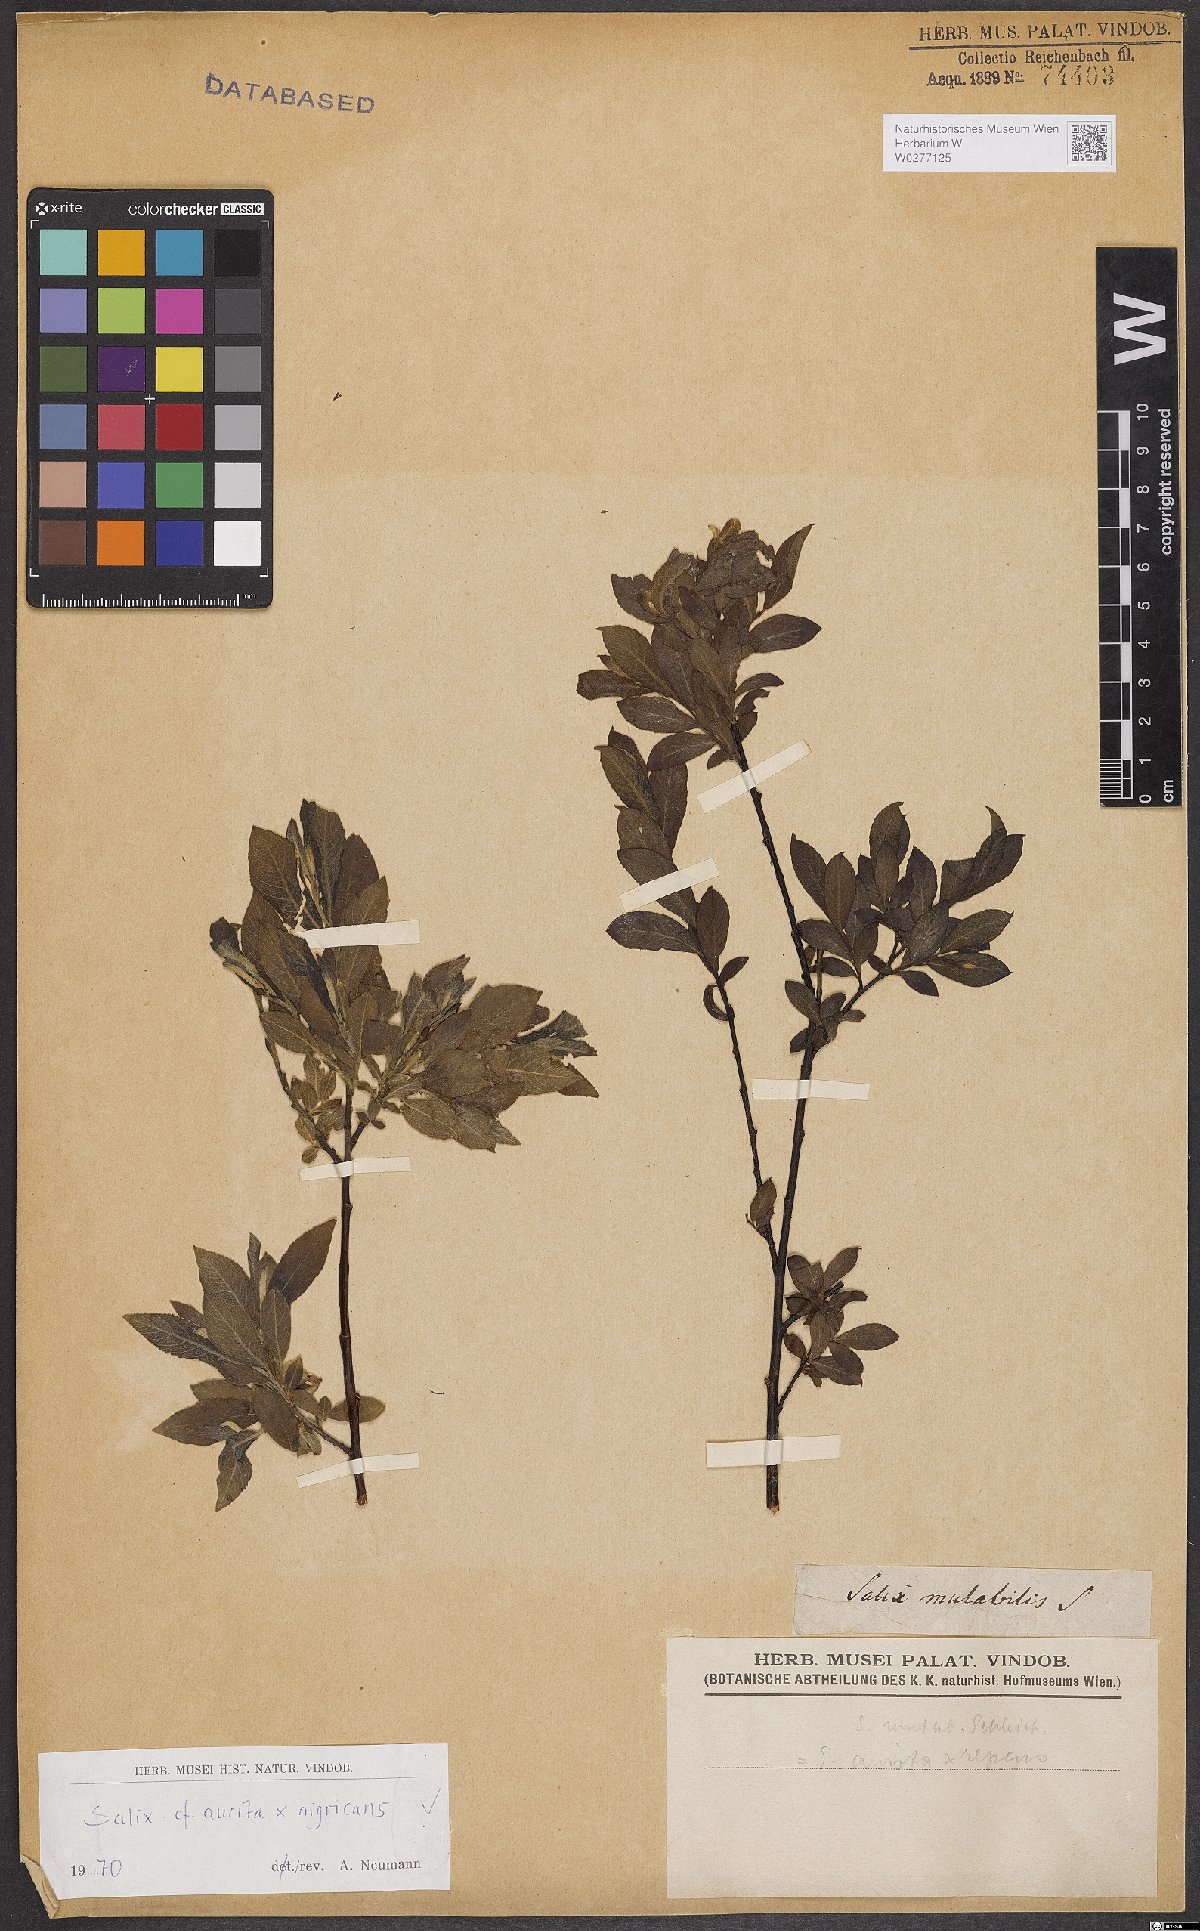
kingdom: Plantae
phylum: Tracheophyta
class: Magnoliopsida
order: Malpighiales
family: Salicaceae
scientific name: Salicaceae
